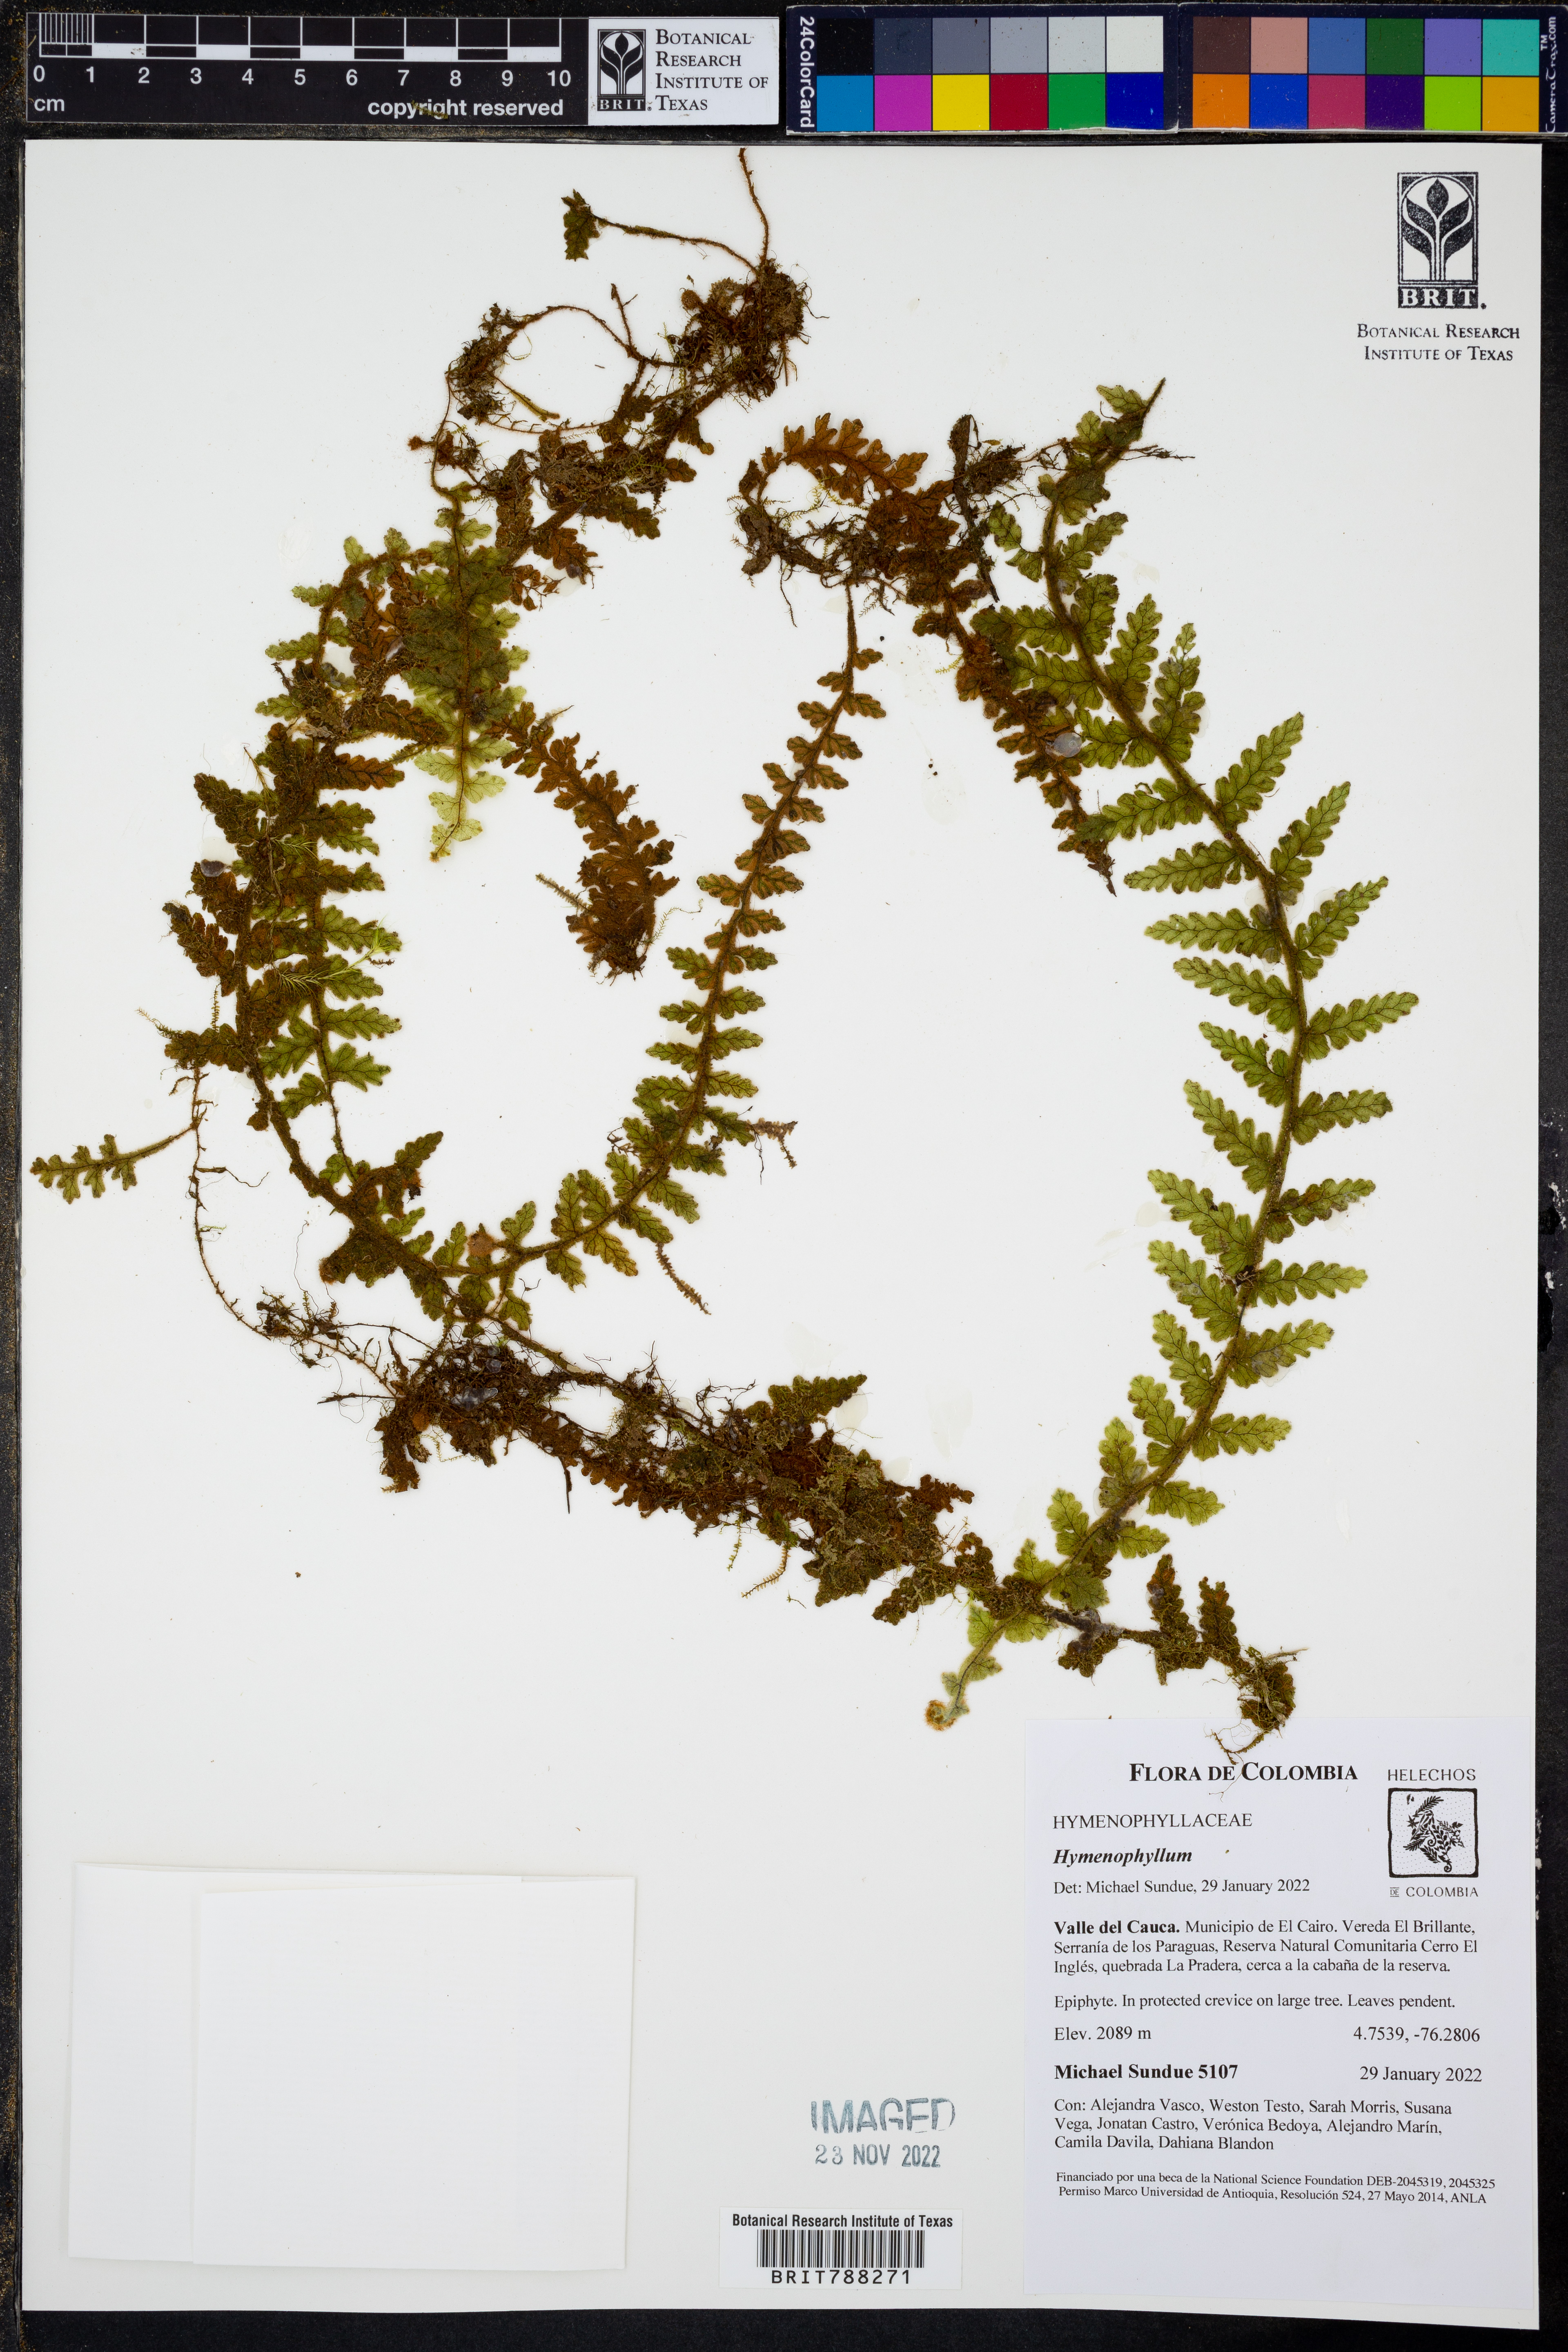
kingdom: Plantae
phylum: Tracheophyta
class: Polypodiopsida
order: Hymenophyllales
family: Hymenophyllaceae
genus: Hymenophyllum
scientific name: Hymenophyllum dependens
